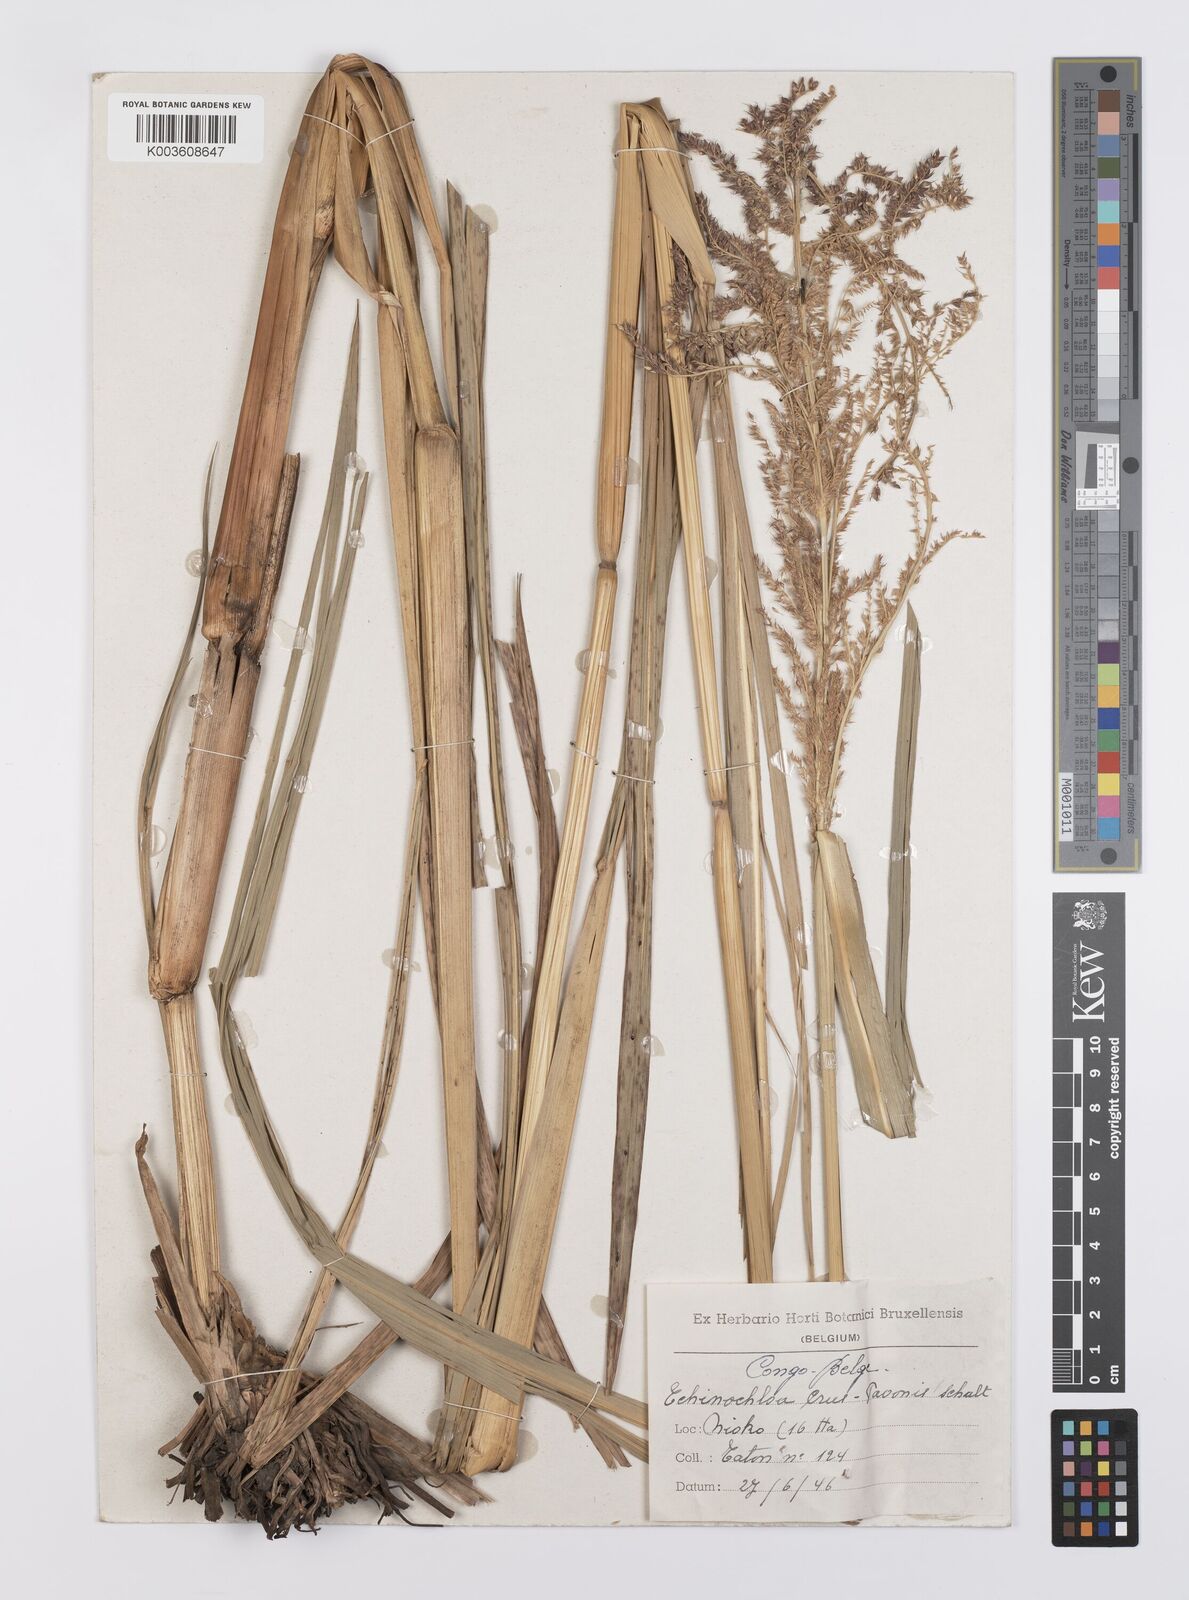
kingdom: Plantae
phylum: Tracheophyta
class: Liliopsida
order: Poales
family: Poaceae
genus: Echinochloa
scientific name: Echinochloa crus-pavonis
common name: Gulf cockspur grass
